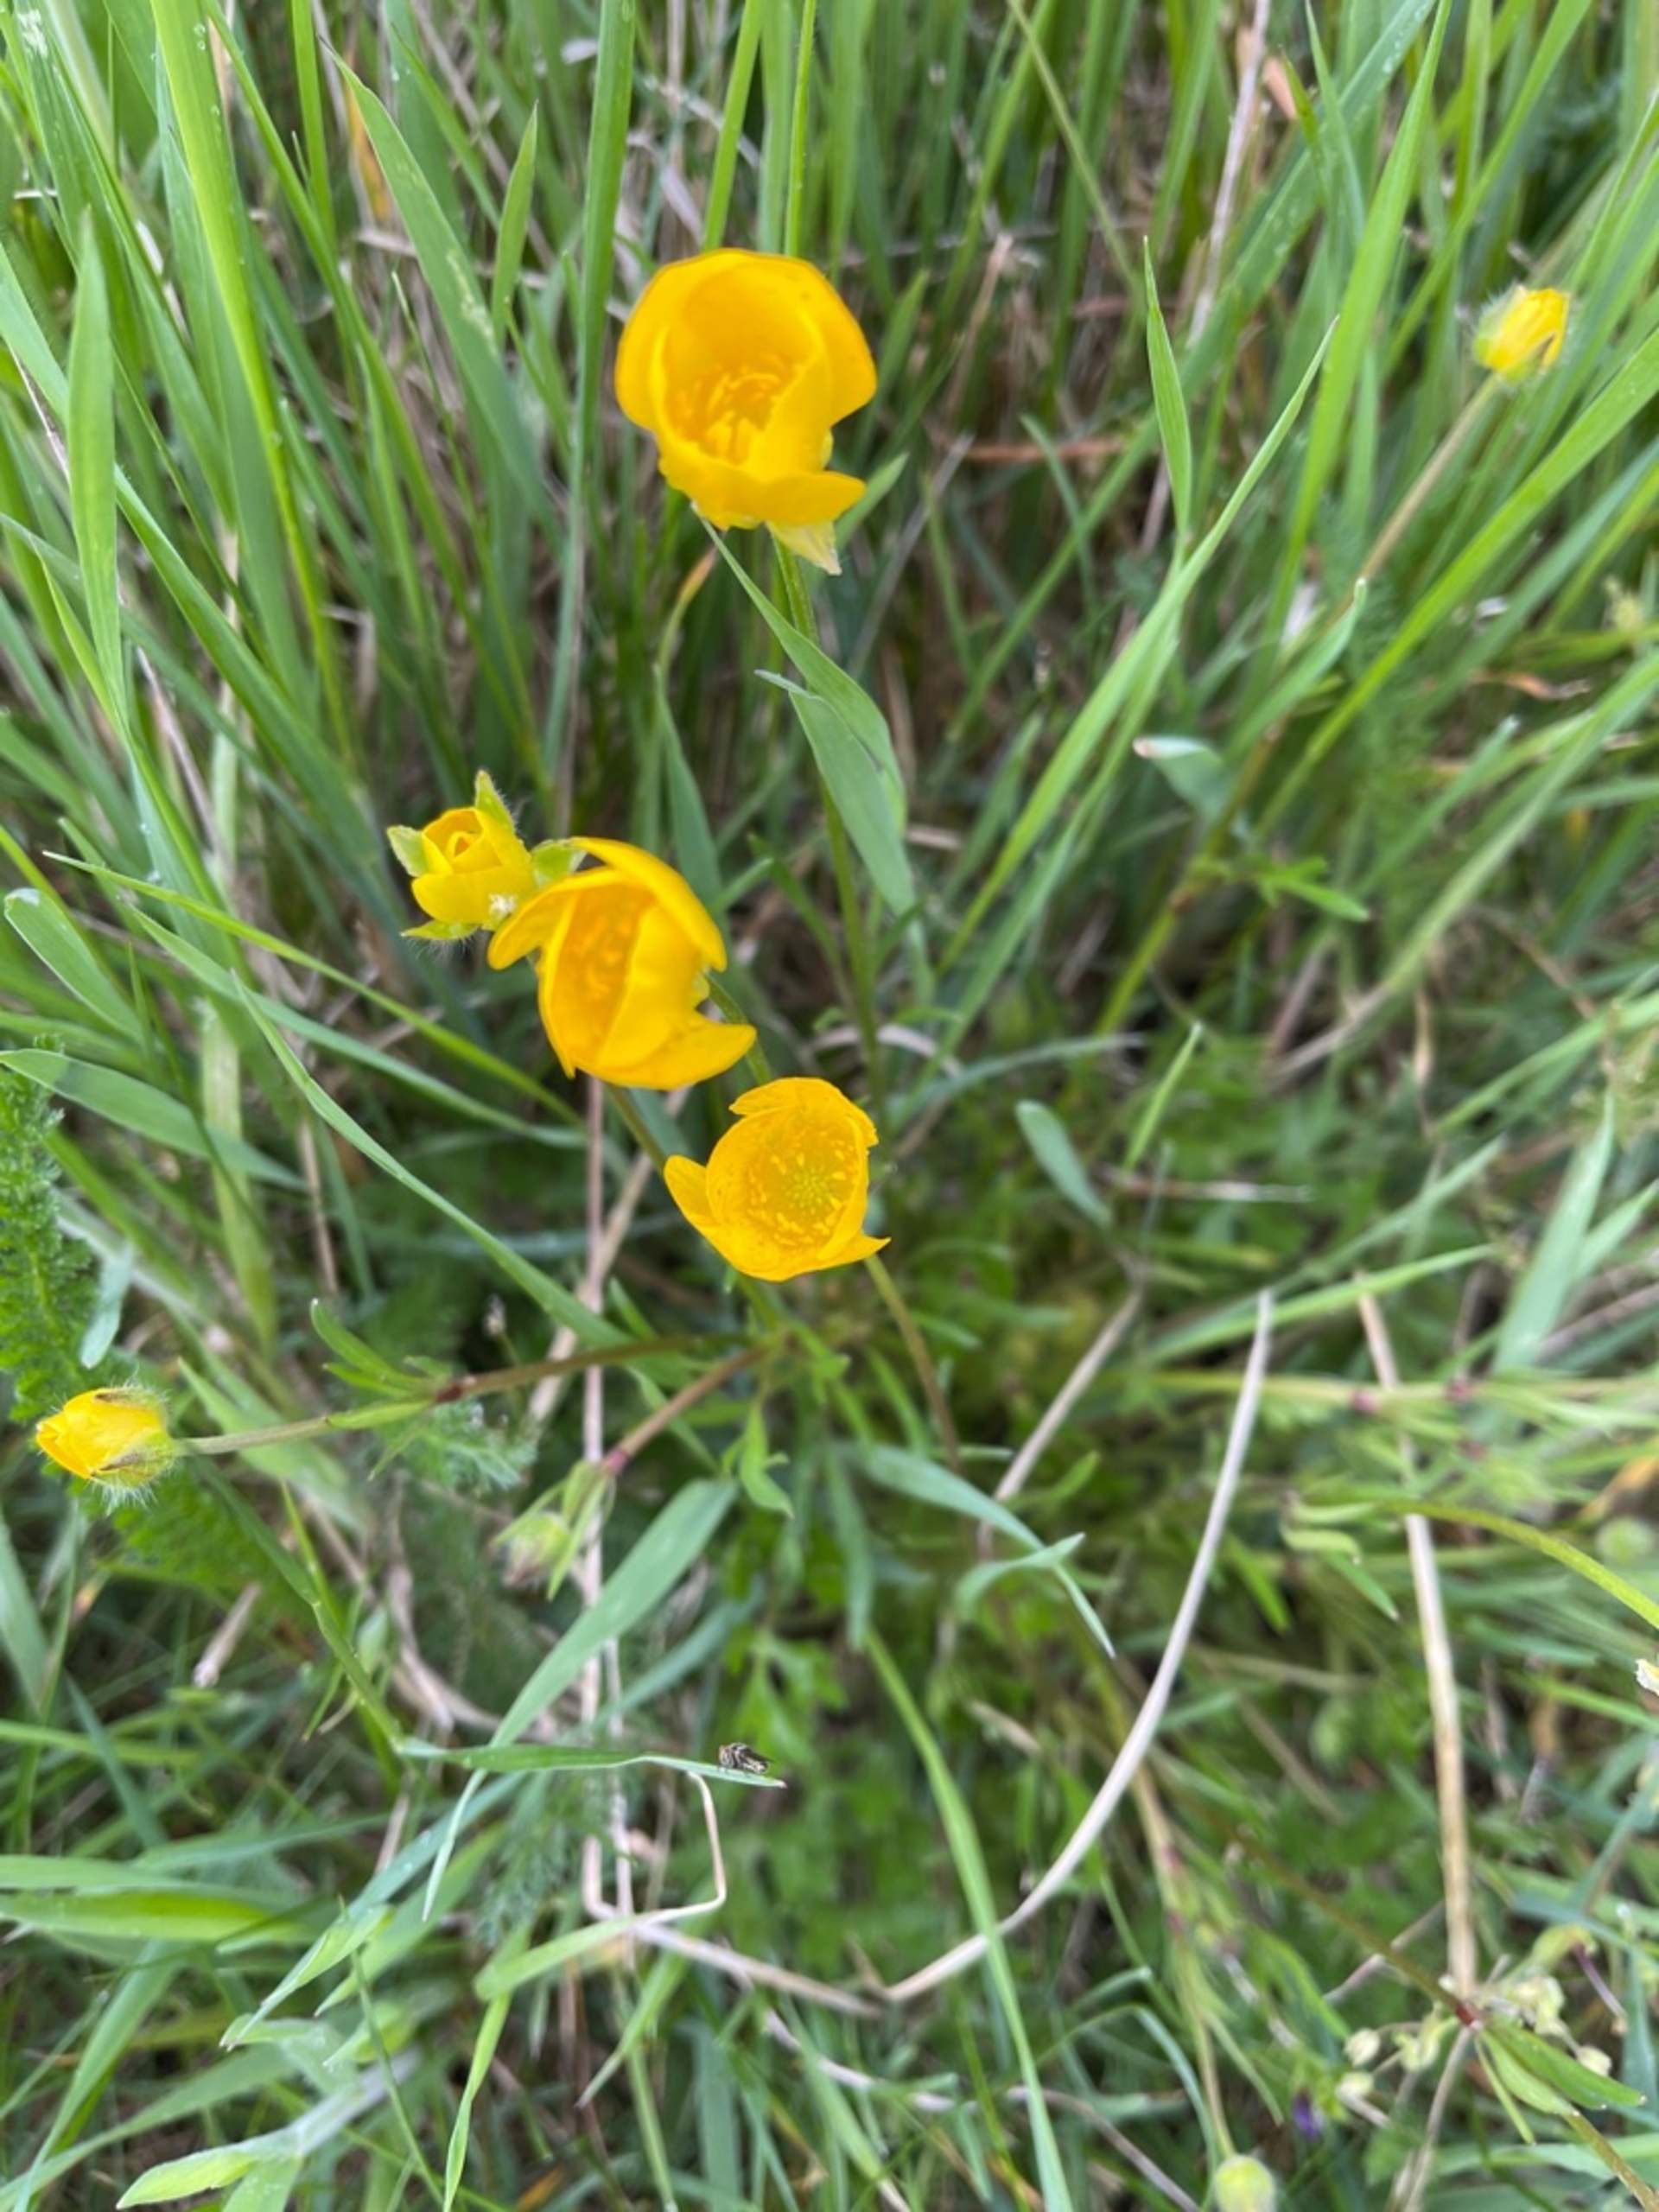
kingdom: Plantae
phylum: Tracheophyta
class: Magnoliopsida
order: Ranunculales
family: Ranunculaceae
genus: Ranunculus
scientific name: Ranunculus acris
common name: Bidende ranunkel
